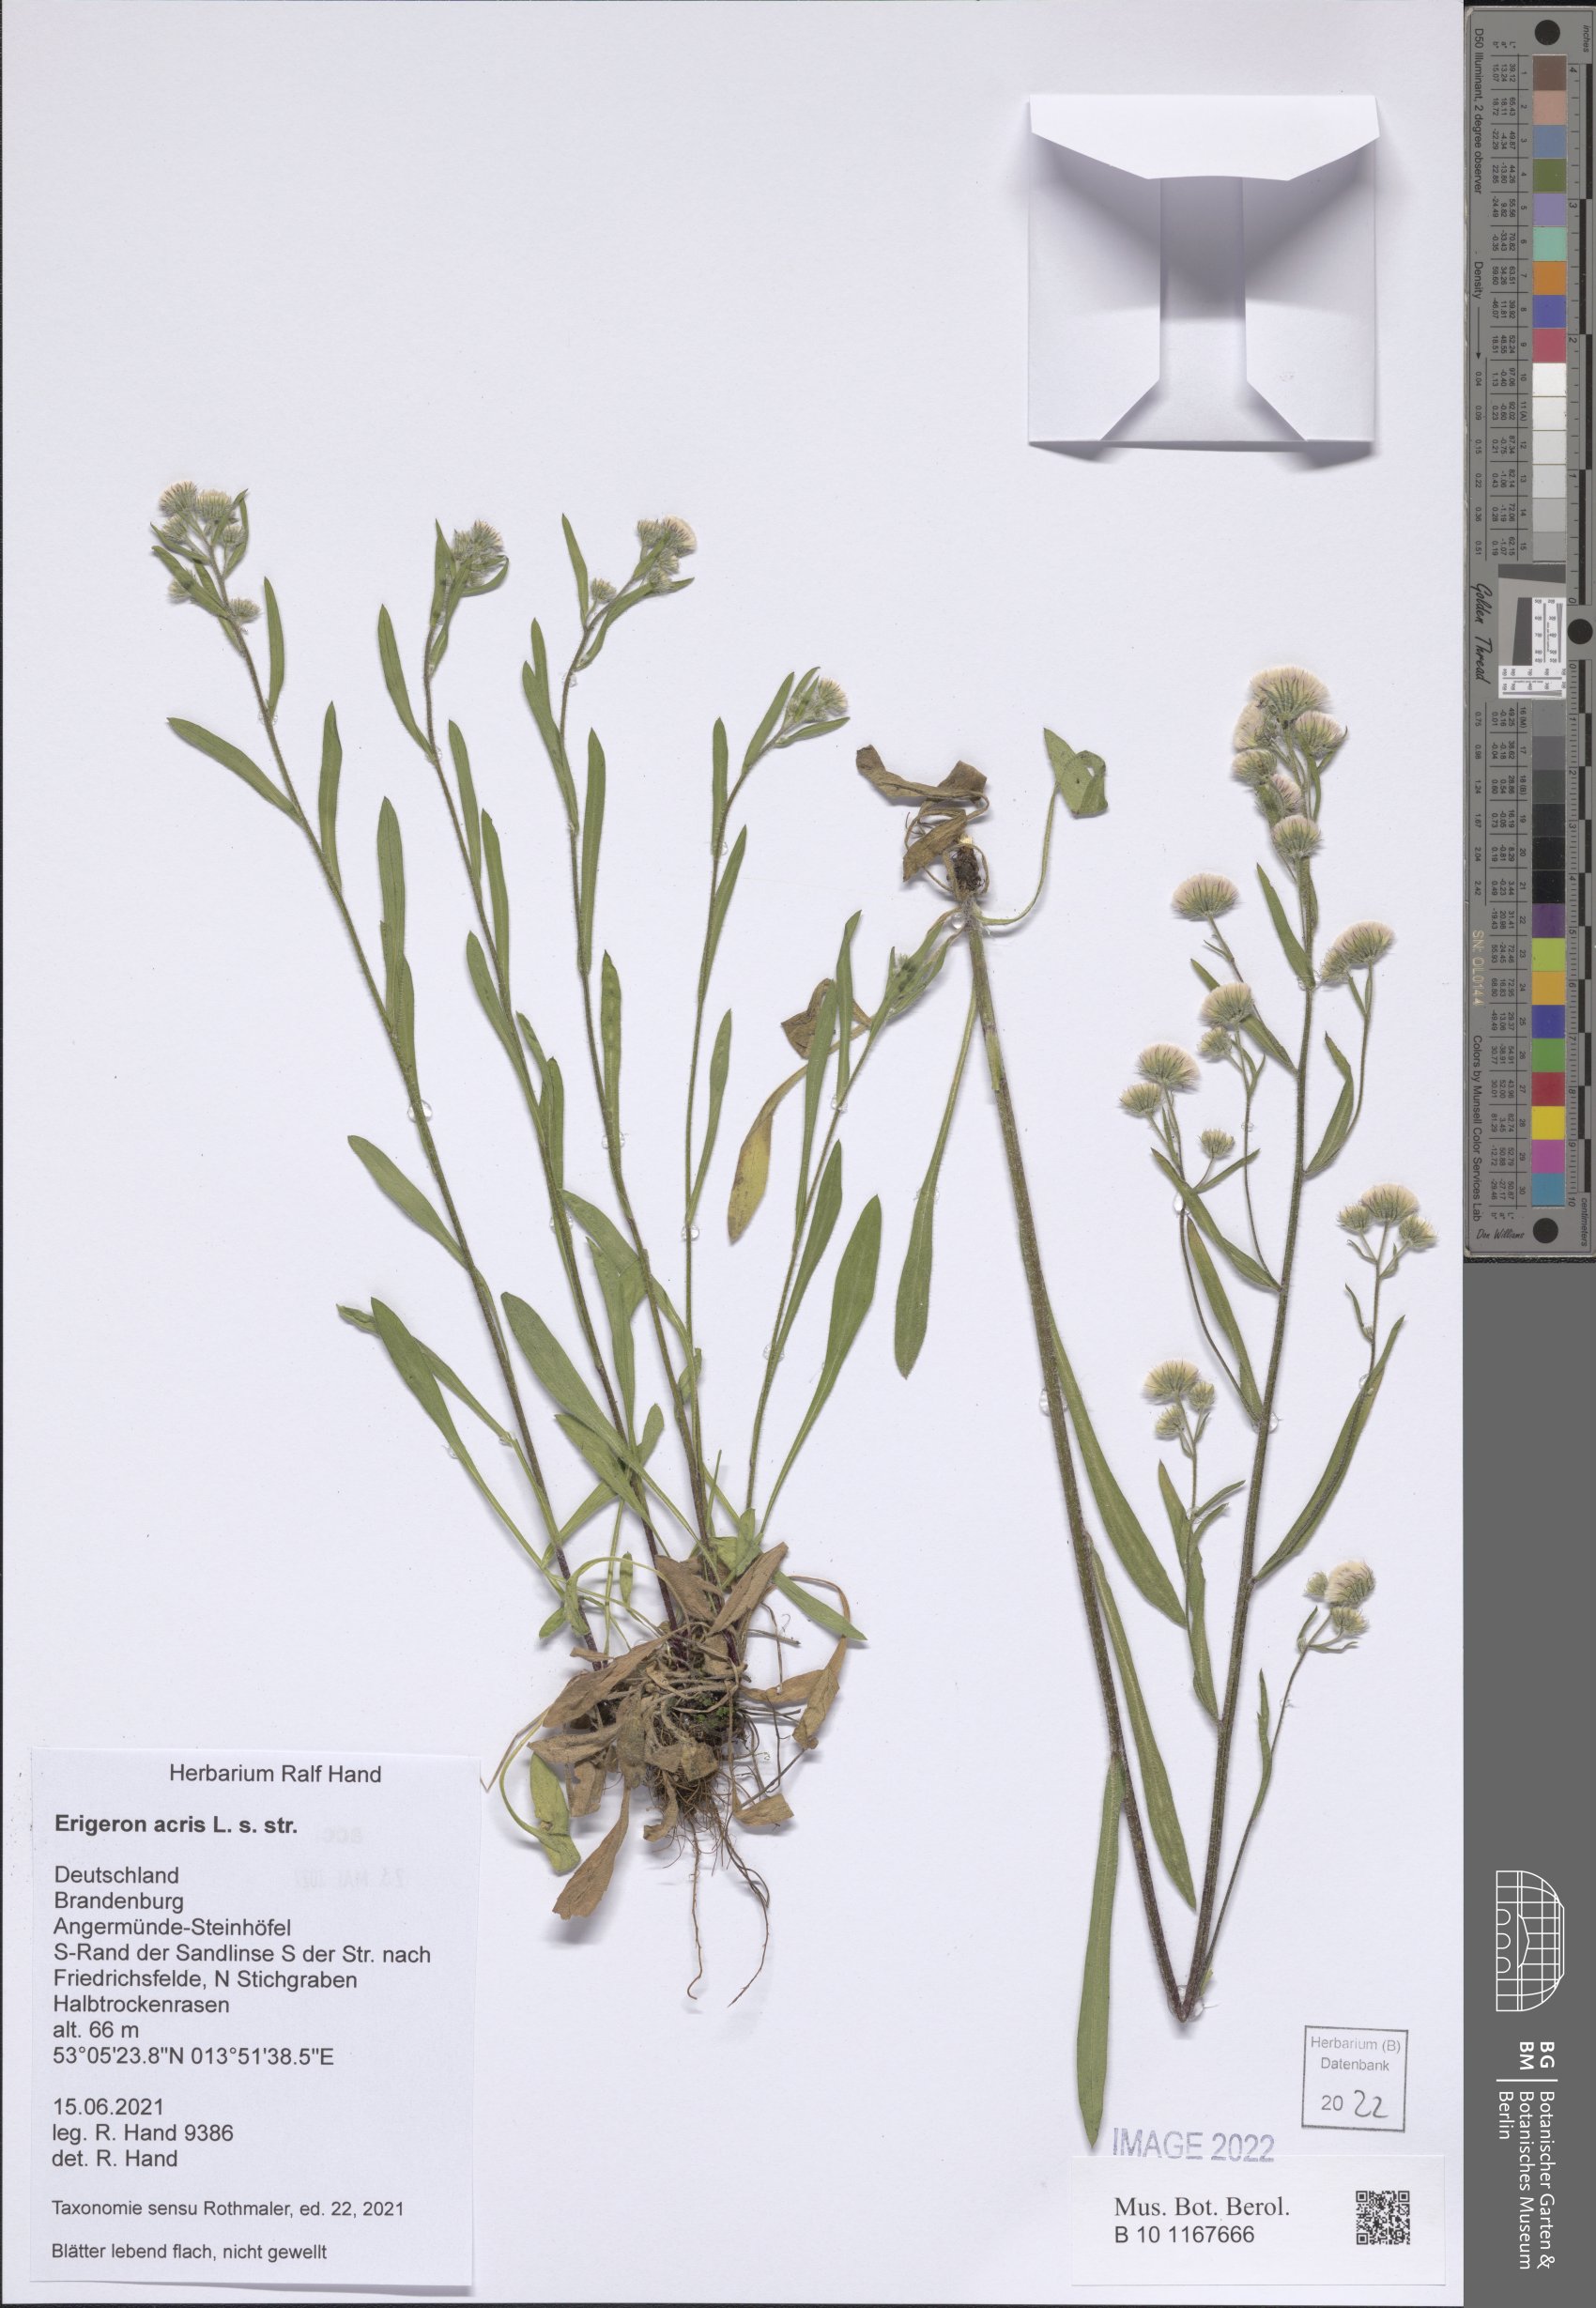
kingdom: Plantae
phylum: Tracheophyta
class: Magnoliopsida
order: Asterales
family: Asteraceae
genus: Erigeron
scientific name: Erigeron acris
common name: Blue fleabane
